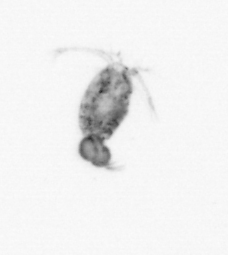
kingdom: Animalia
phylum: Arthropoda
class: Copepoda
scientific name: Copepoda
